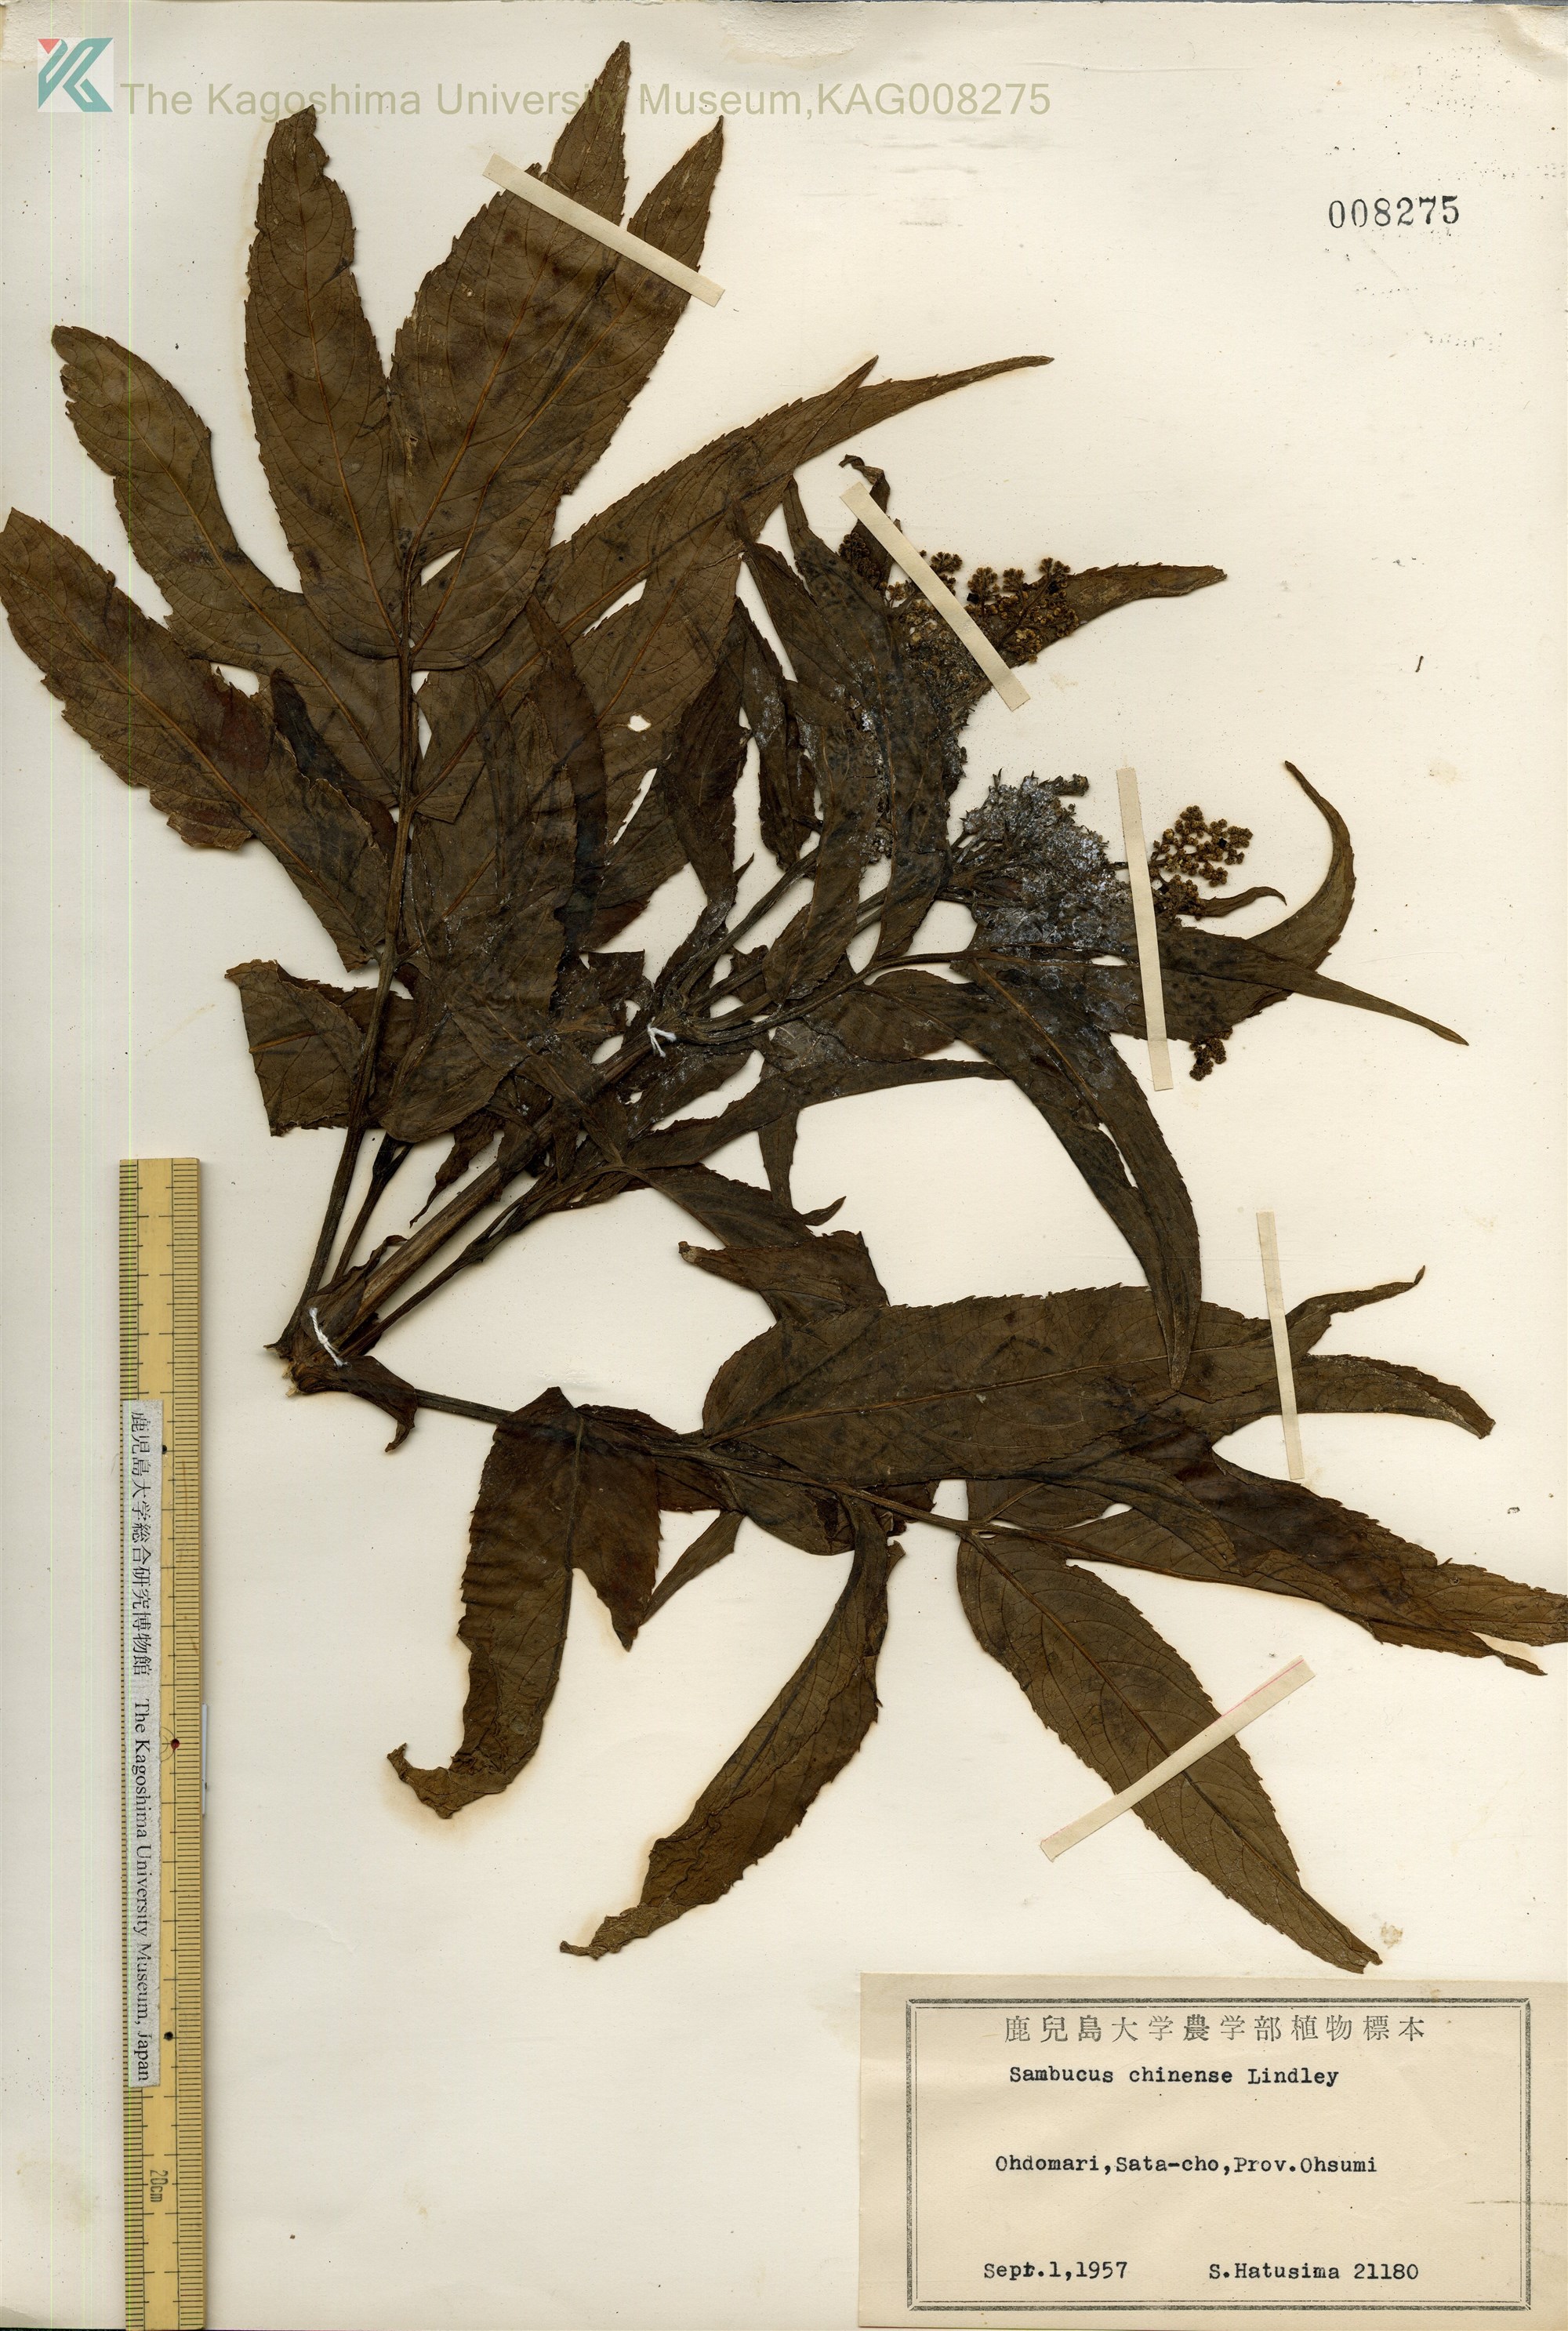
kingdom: Plantae
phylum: Tracheophyta
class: Magnoliopsida
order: Dipsacales
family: Viburnaceae
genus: Sambucus
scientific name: Sambucus javanica
